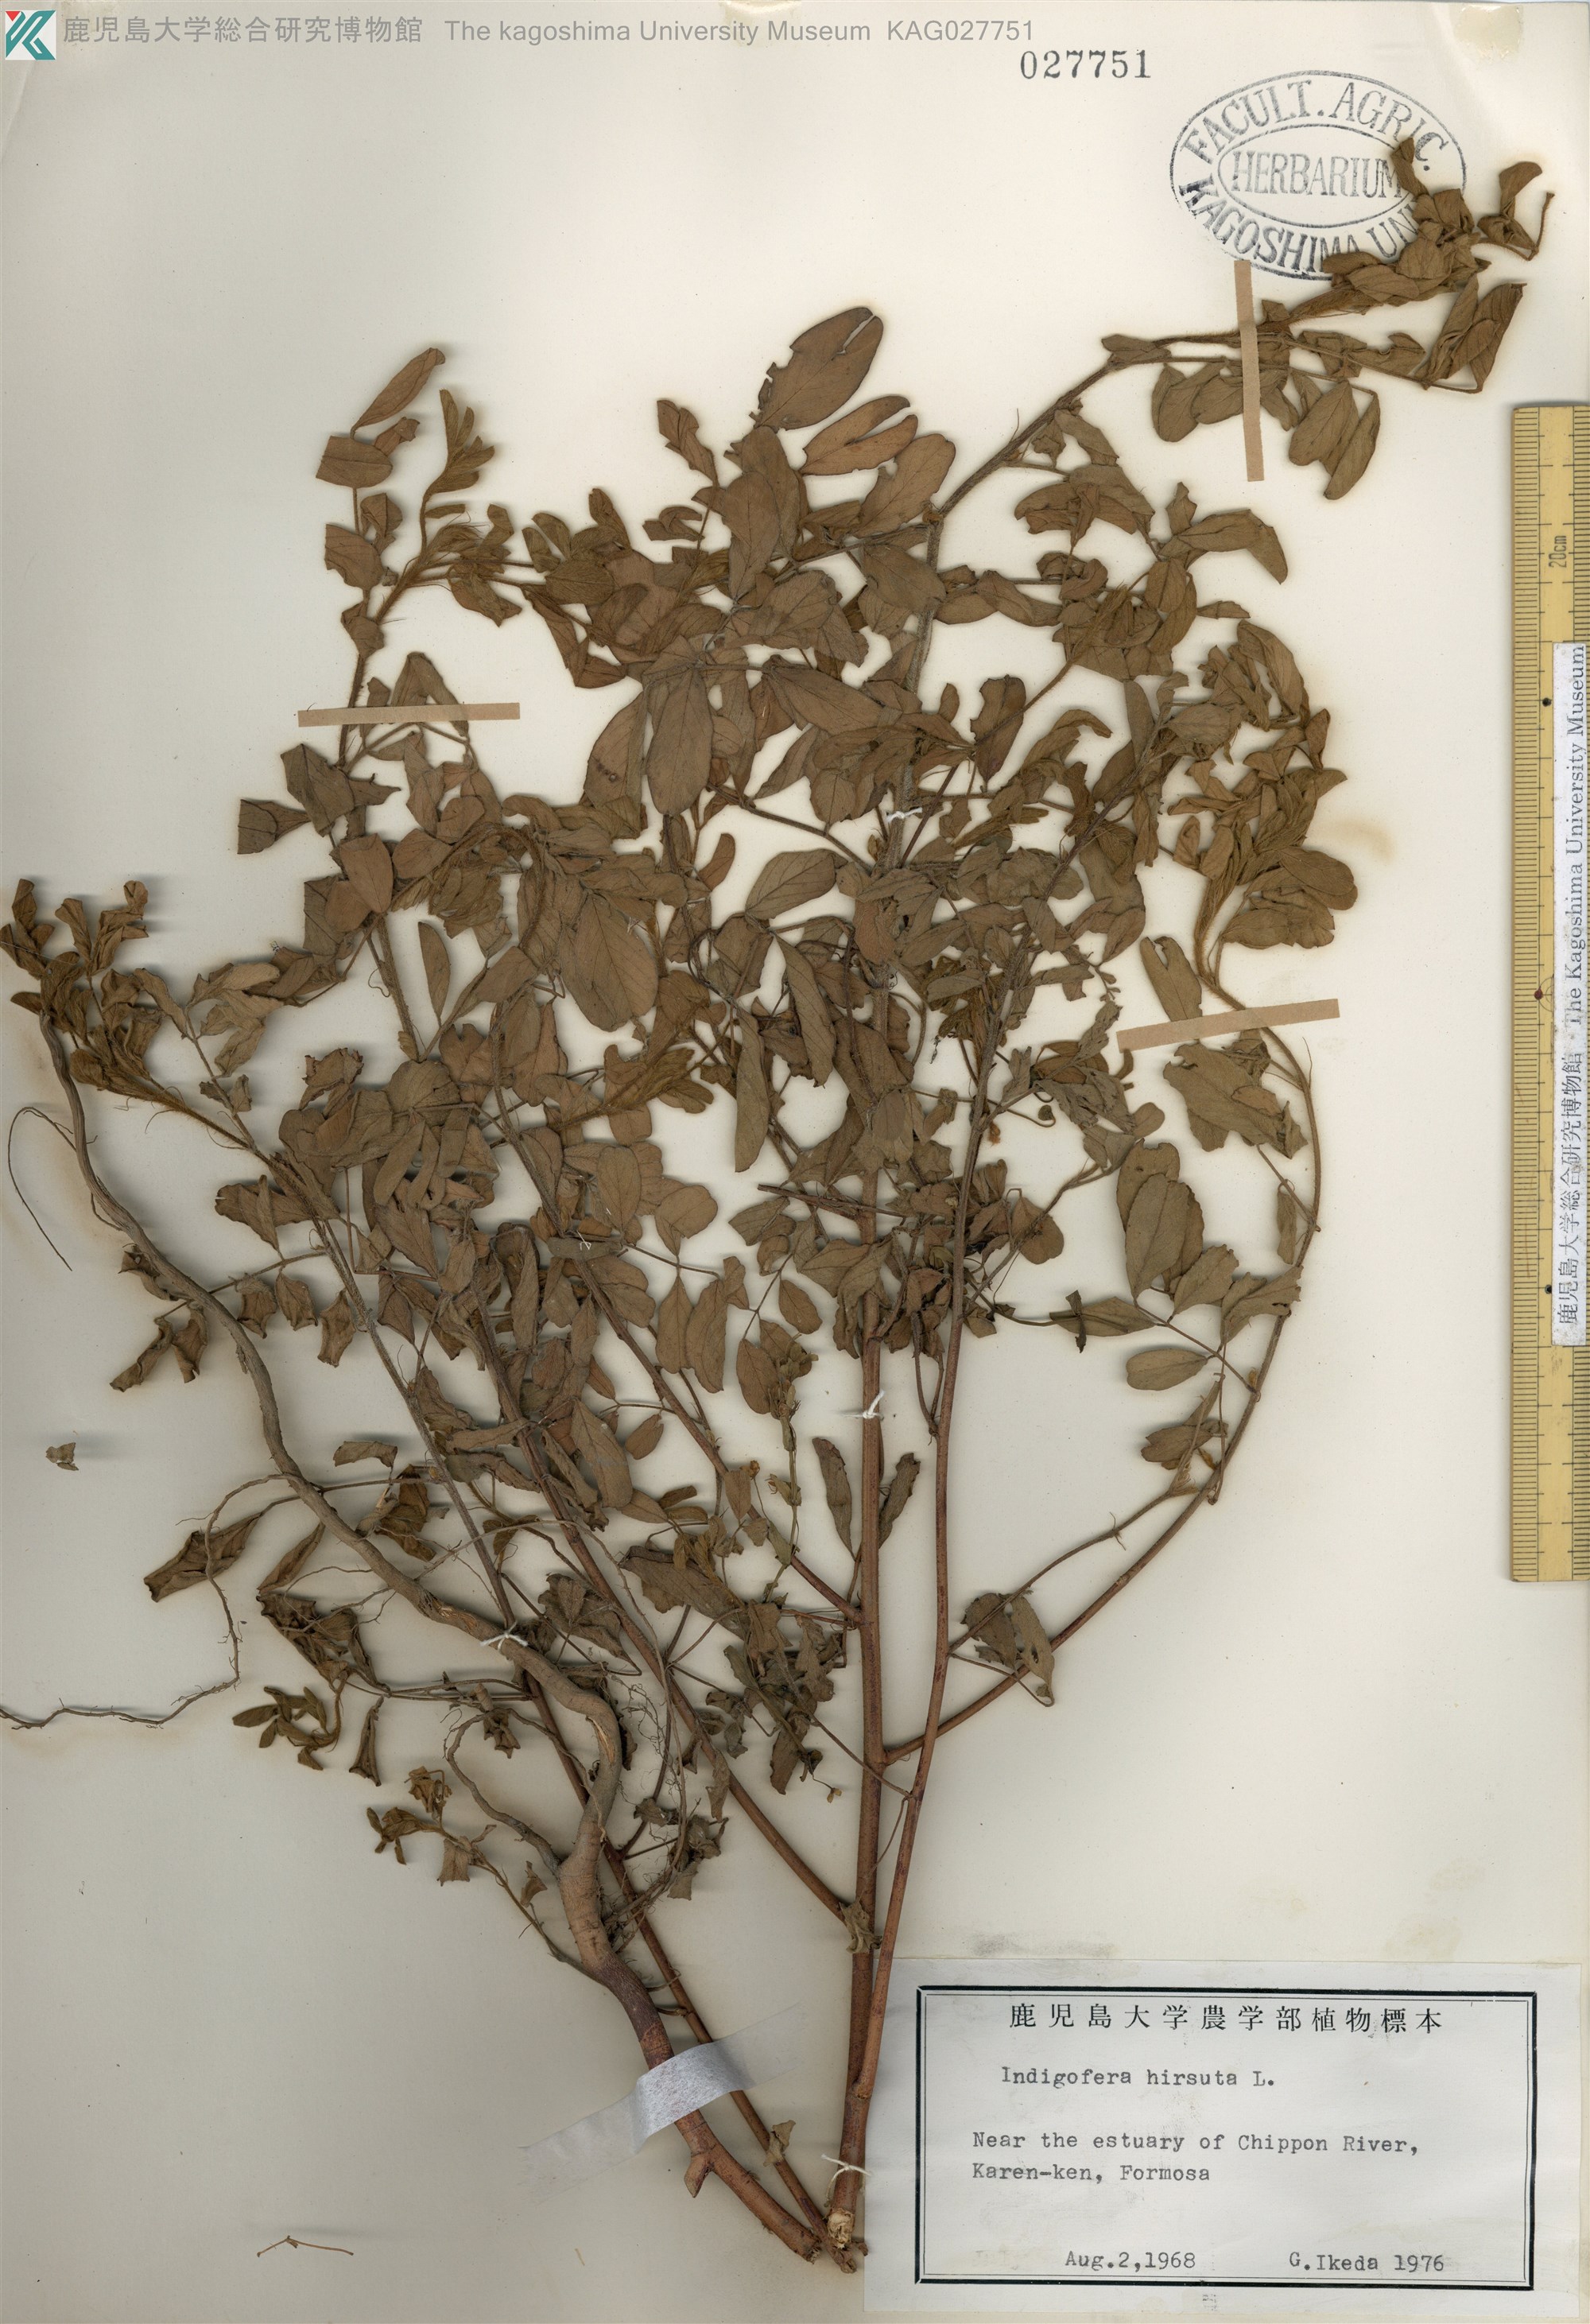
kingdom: Plantae
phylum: Tracheophyta
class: Magnoliopsida
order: Fabales
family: Fabaceae
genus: Indigofera
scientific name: Indigofera hirsuta
